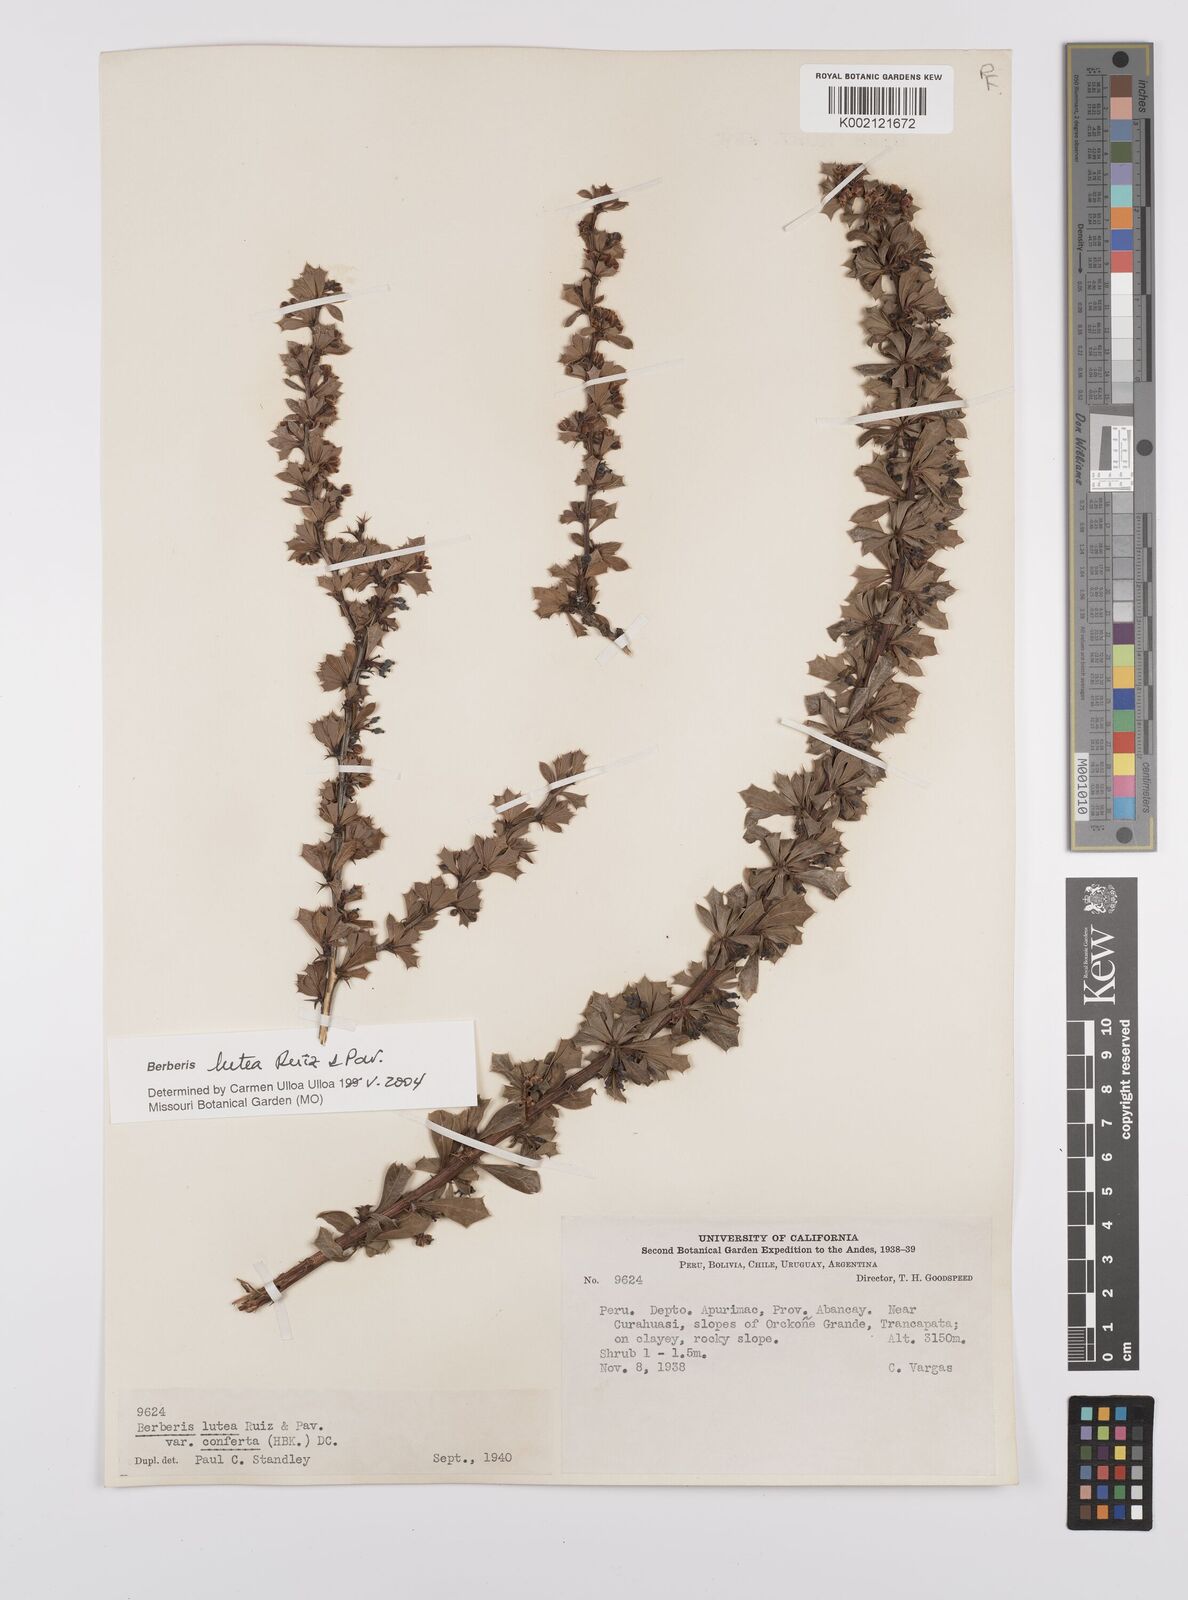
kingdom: Plantae
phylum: Tracheophyta
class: Magnoliopsida
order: Ranunculales
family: Berberidaceae
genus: Berberis
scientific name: Berberis lutea
